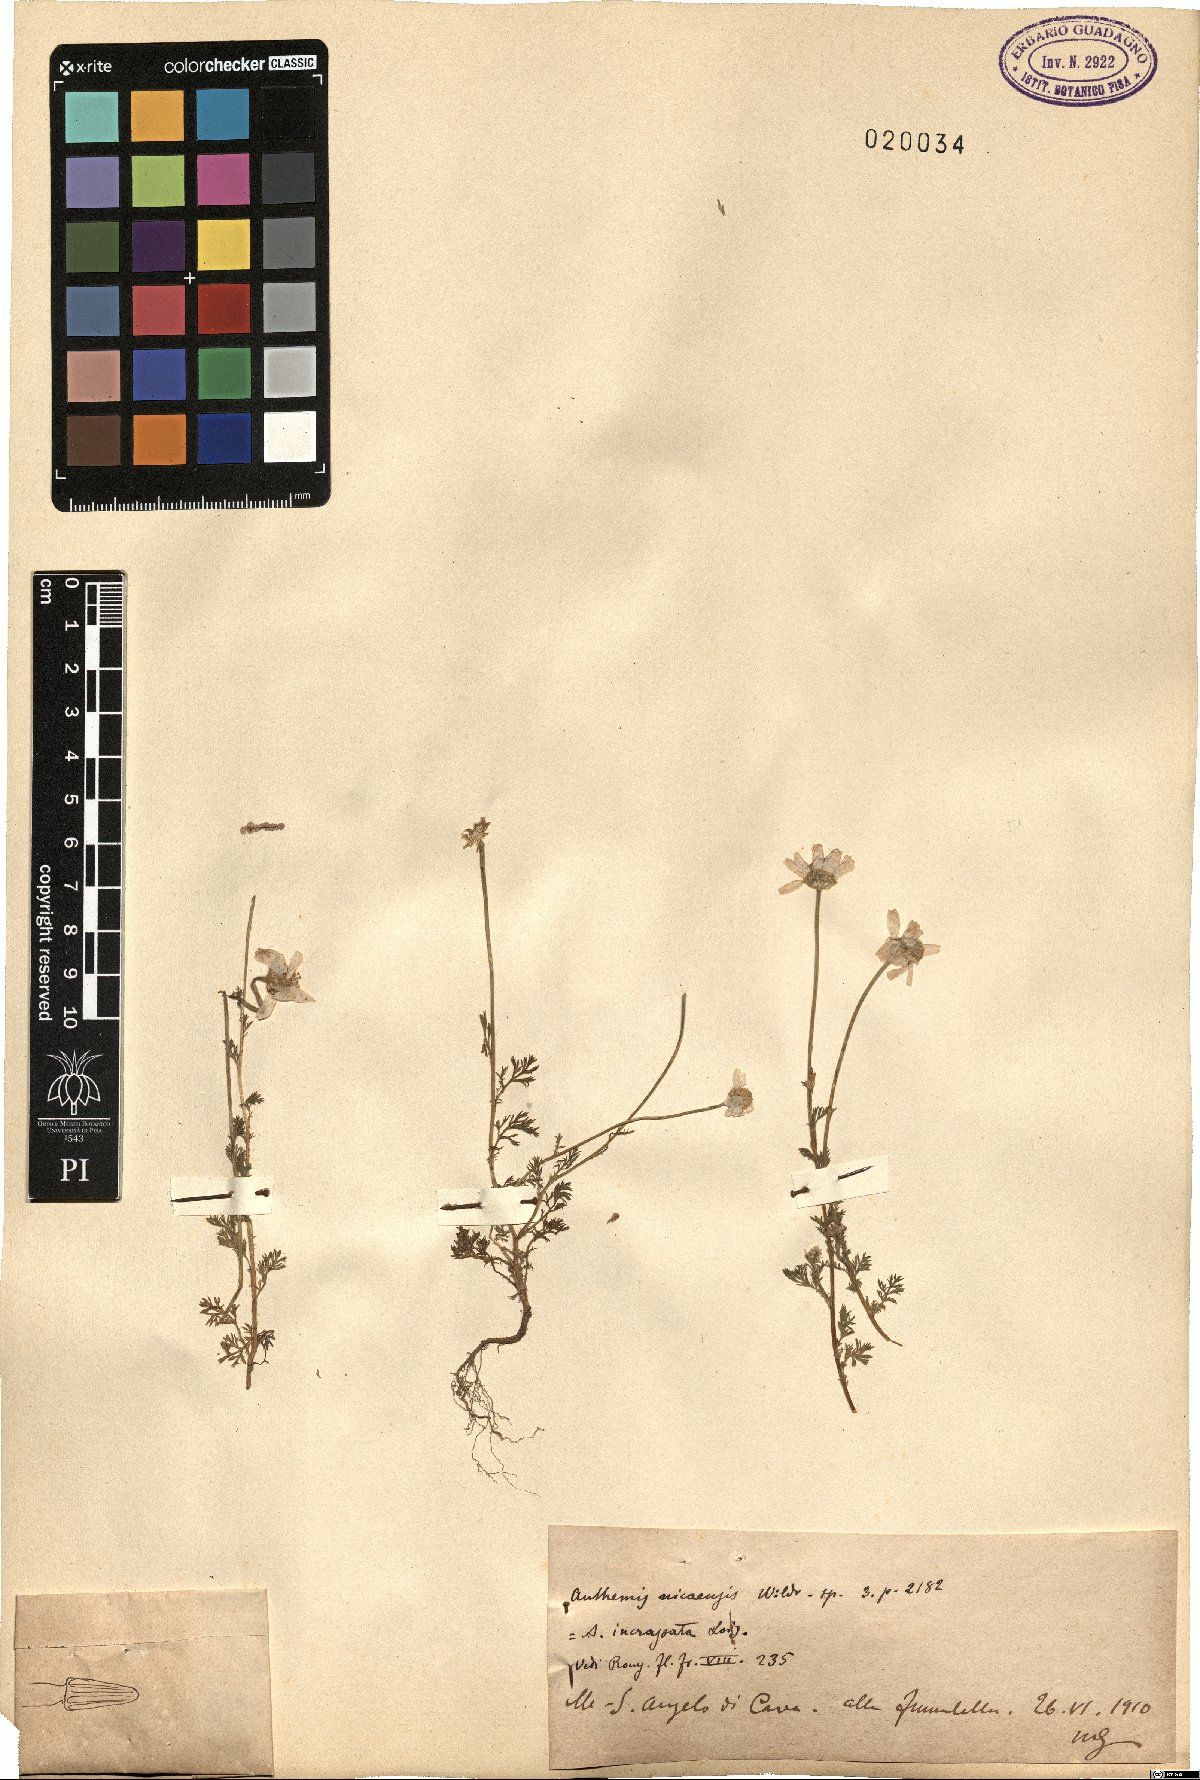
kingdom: Plantae
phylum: Tracheophyta
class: Magnoliopsida
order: Asterales
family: Asteraceae
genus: Anthemis
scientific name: Anthemis arvensis
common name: Corn chamomile
